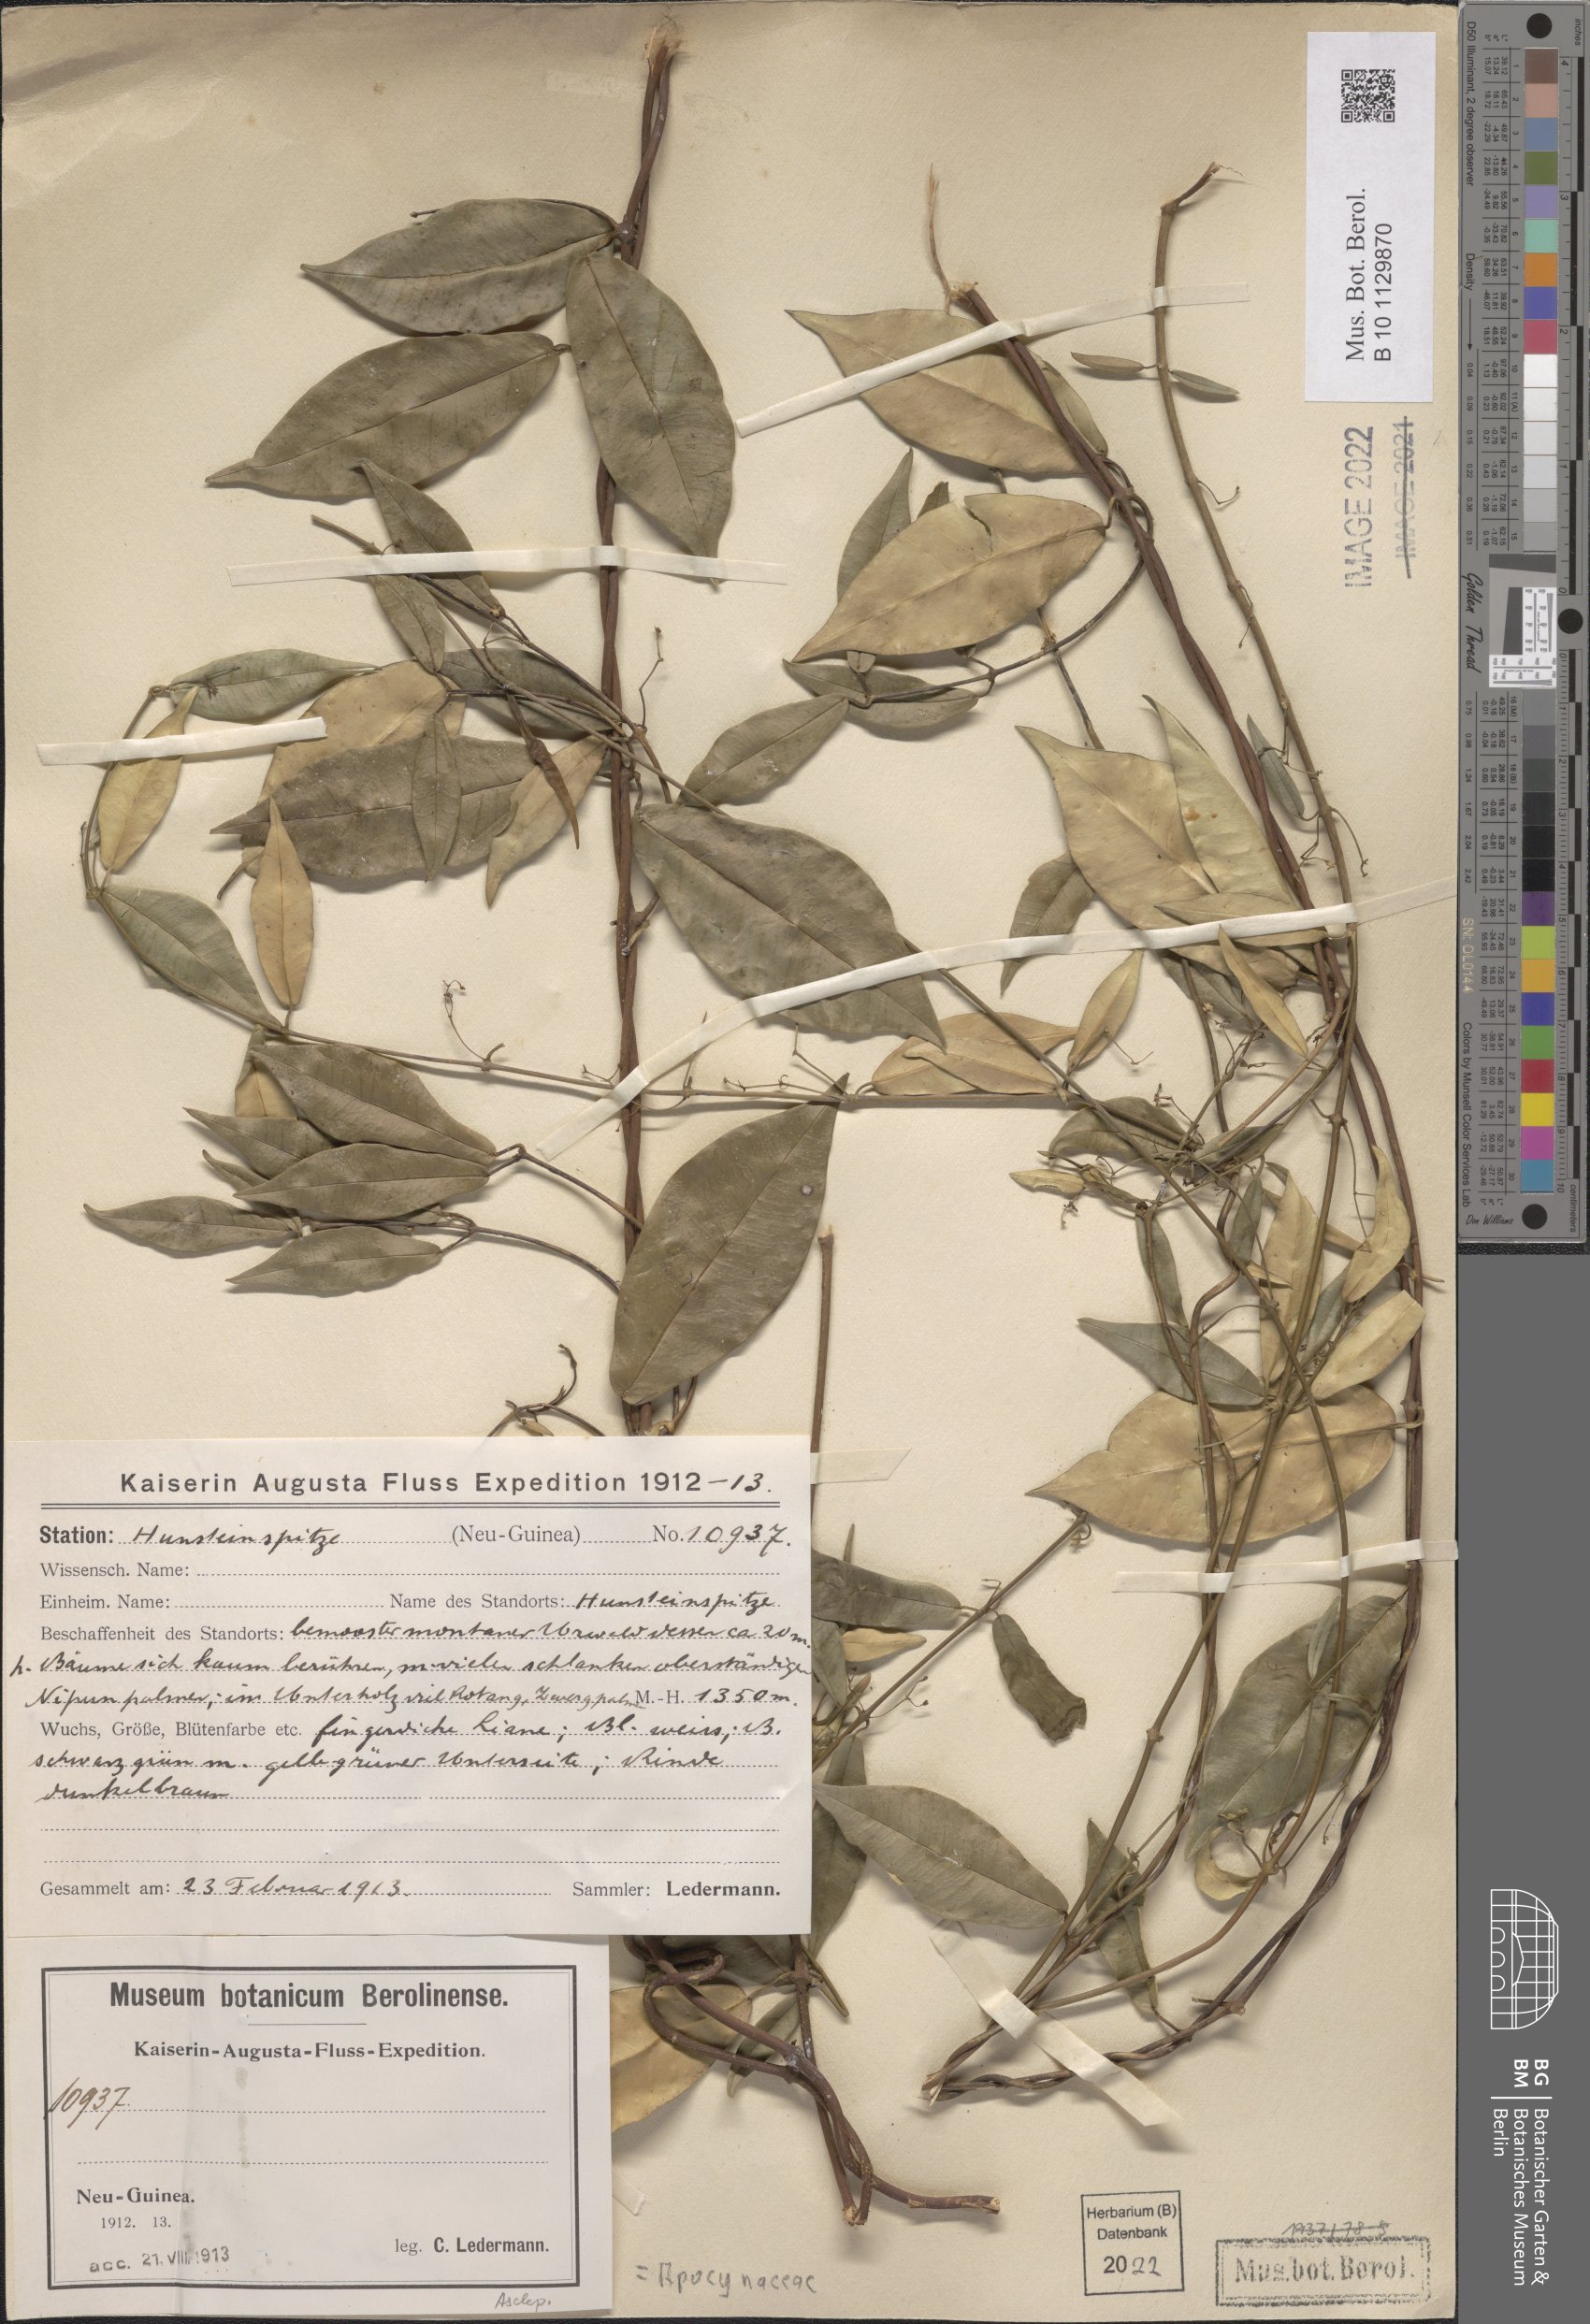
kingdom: Plantae
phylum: Tracheophyta
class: Magnoliopsida
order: Gentianales
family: Apocynaceae
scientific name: Apocynaceae
